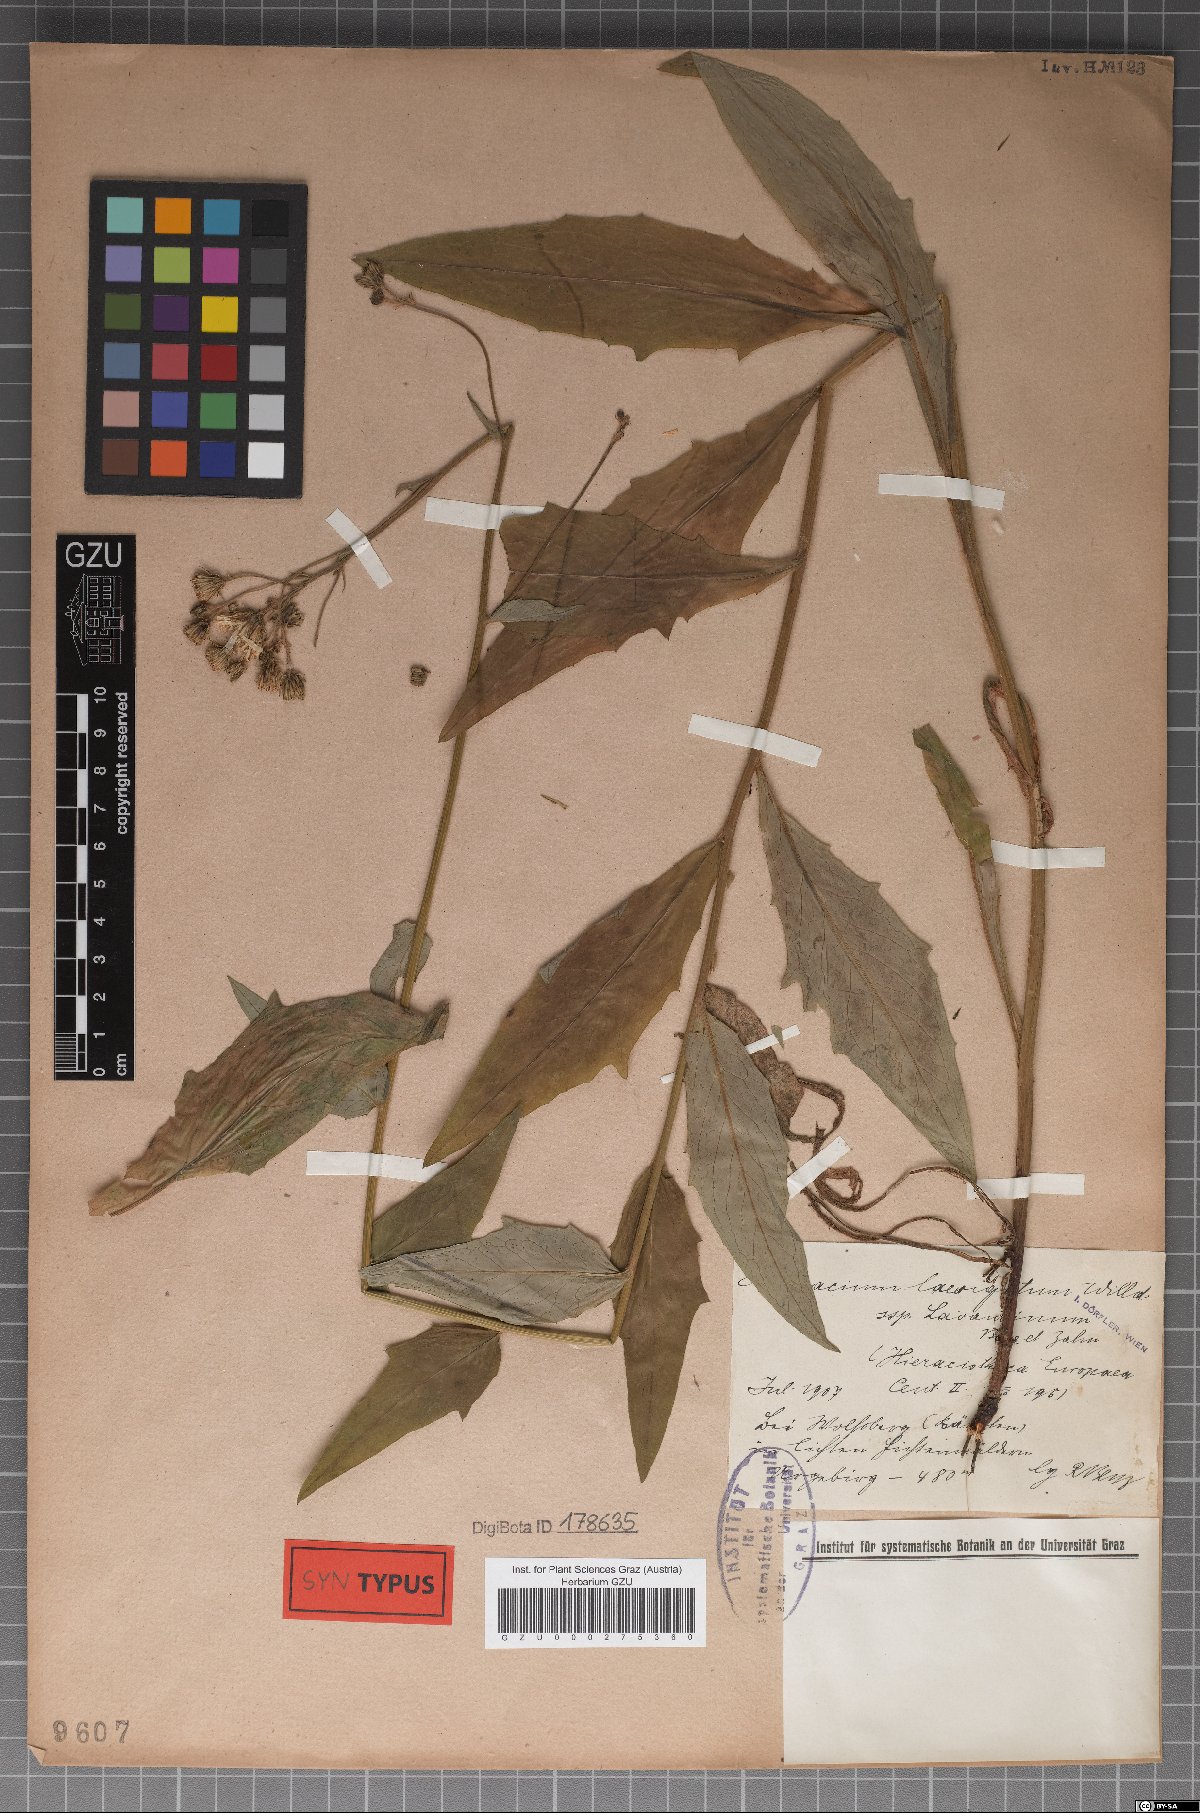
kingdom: Plantae
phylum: Tracheophyta
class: Magnoliopsida
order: Asterales
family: Asteraceae
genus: Hieracium
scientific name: Hieracium laevigatum
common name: Smooth hawkweed
